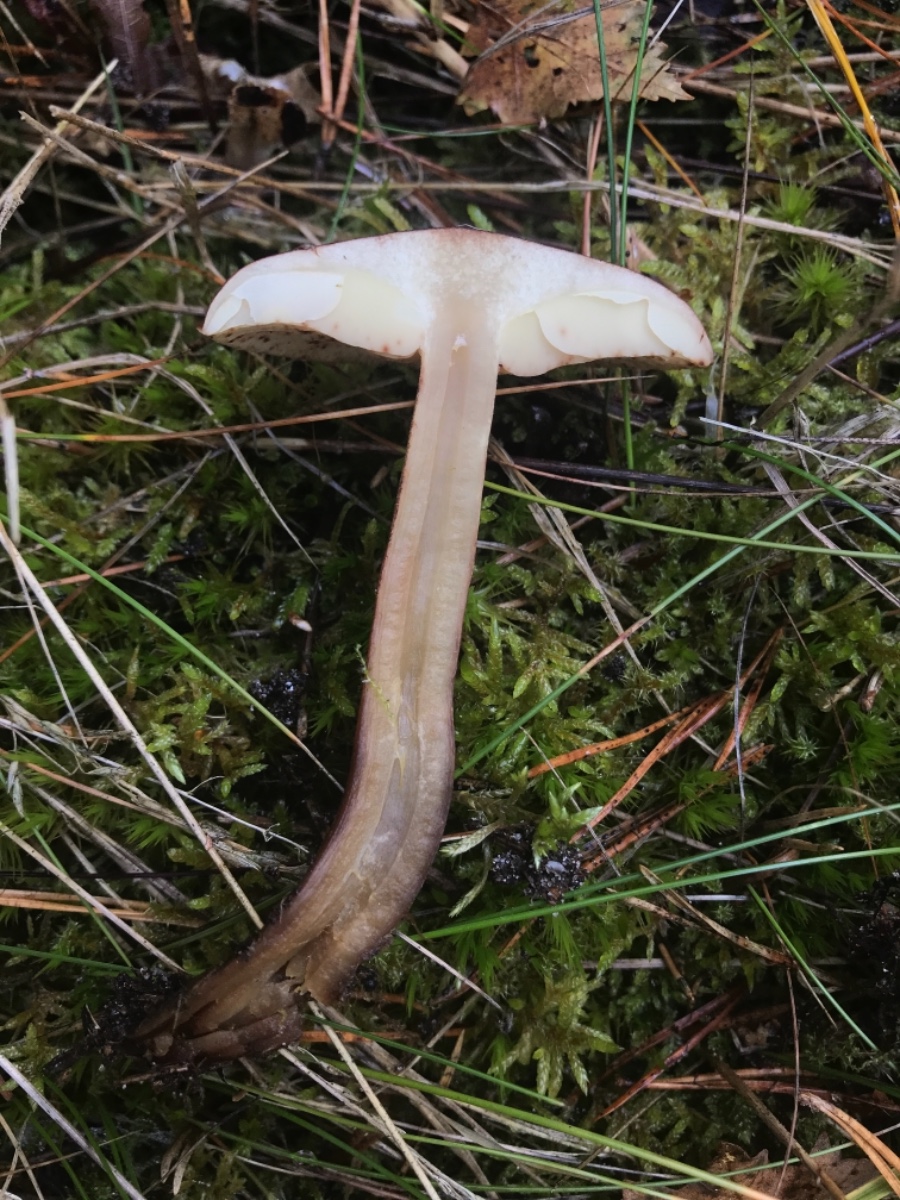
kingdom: Fungi
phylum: Basidiomycota
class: Agaricomycetes
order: Agaricales
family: Tricholomataceae
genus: Tricholoma
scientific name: Tricholoma fulvum
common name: birke-ridderhat
